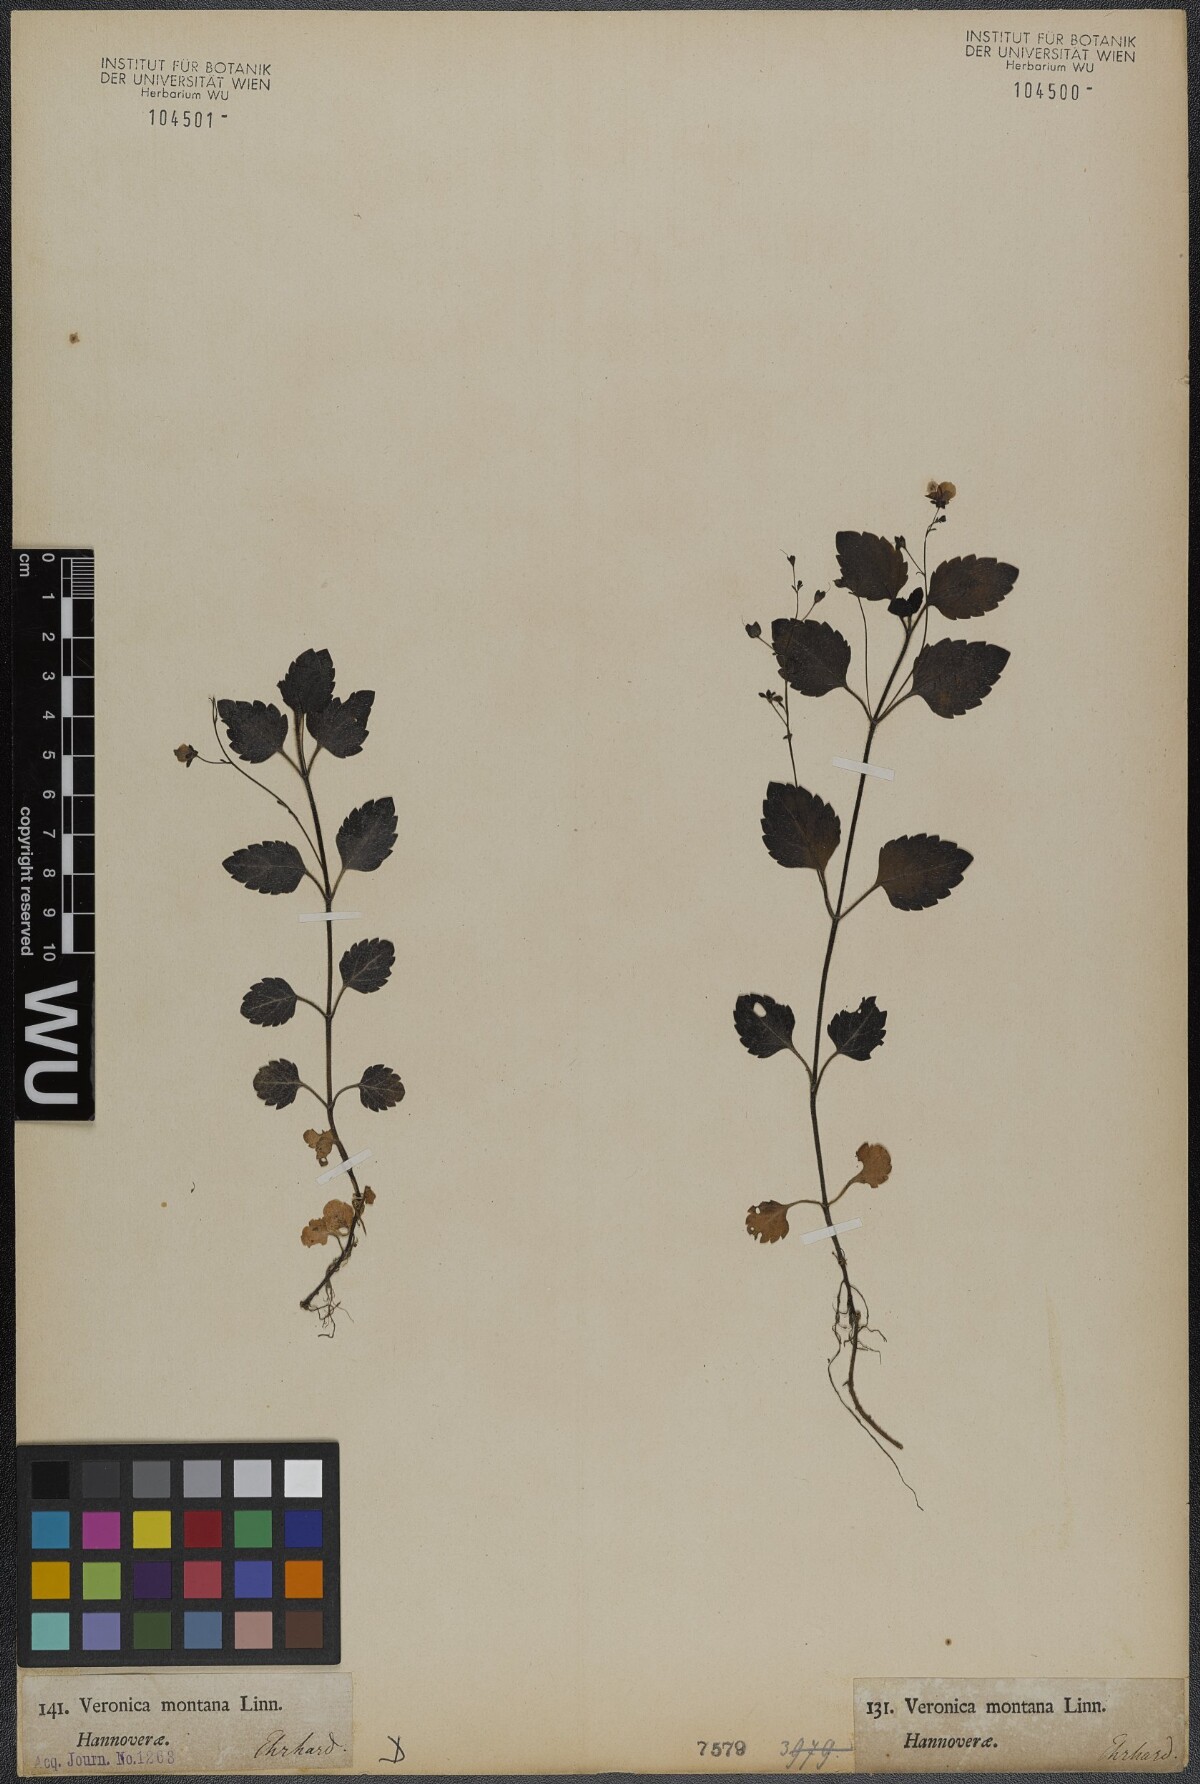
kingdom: Plantae
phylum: Tracheophyta
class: Magnoliopsida
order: Lamiales
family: Plantaginaceae
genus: Veronica
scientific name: Veronica montana
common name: Wood speedwell
